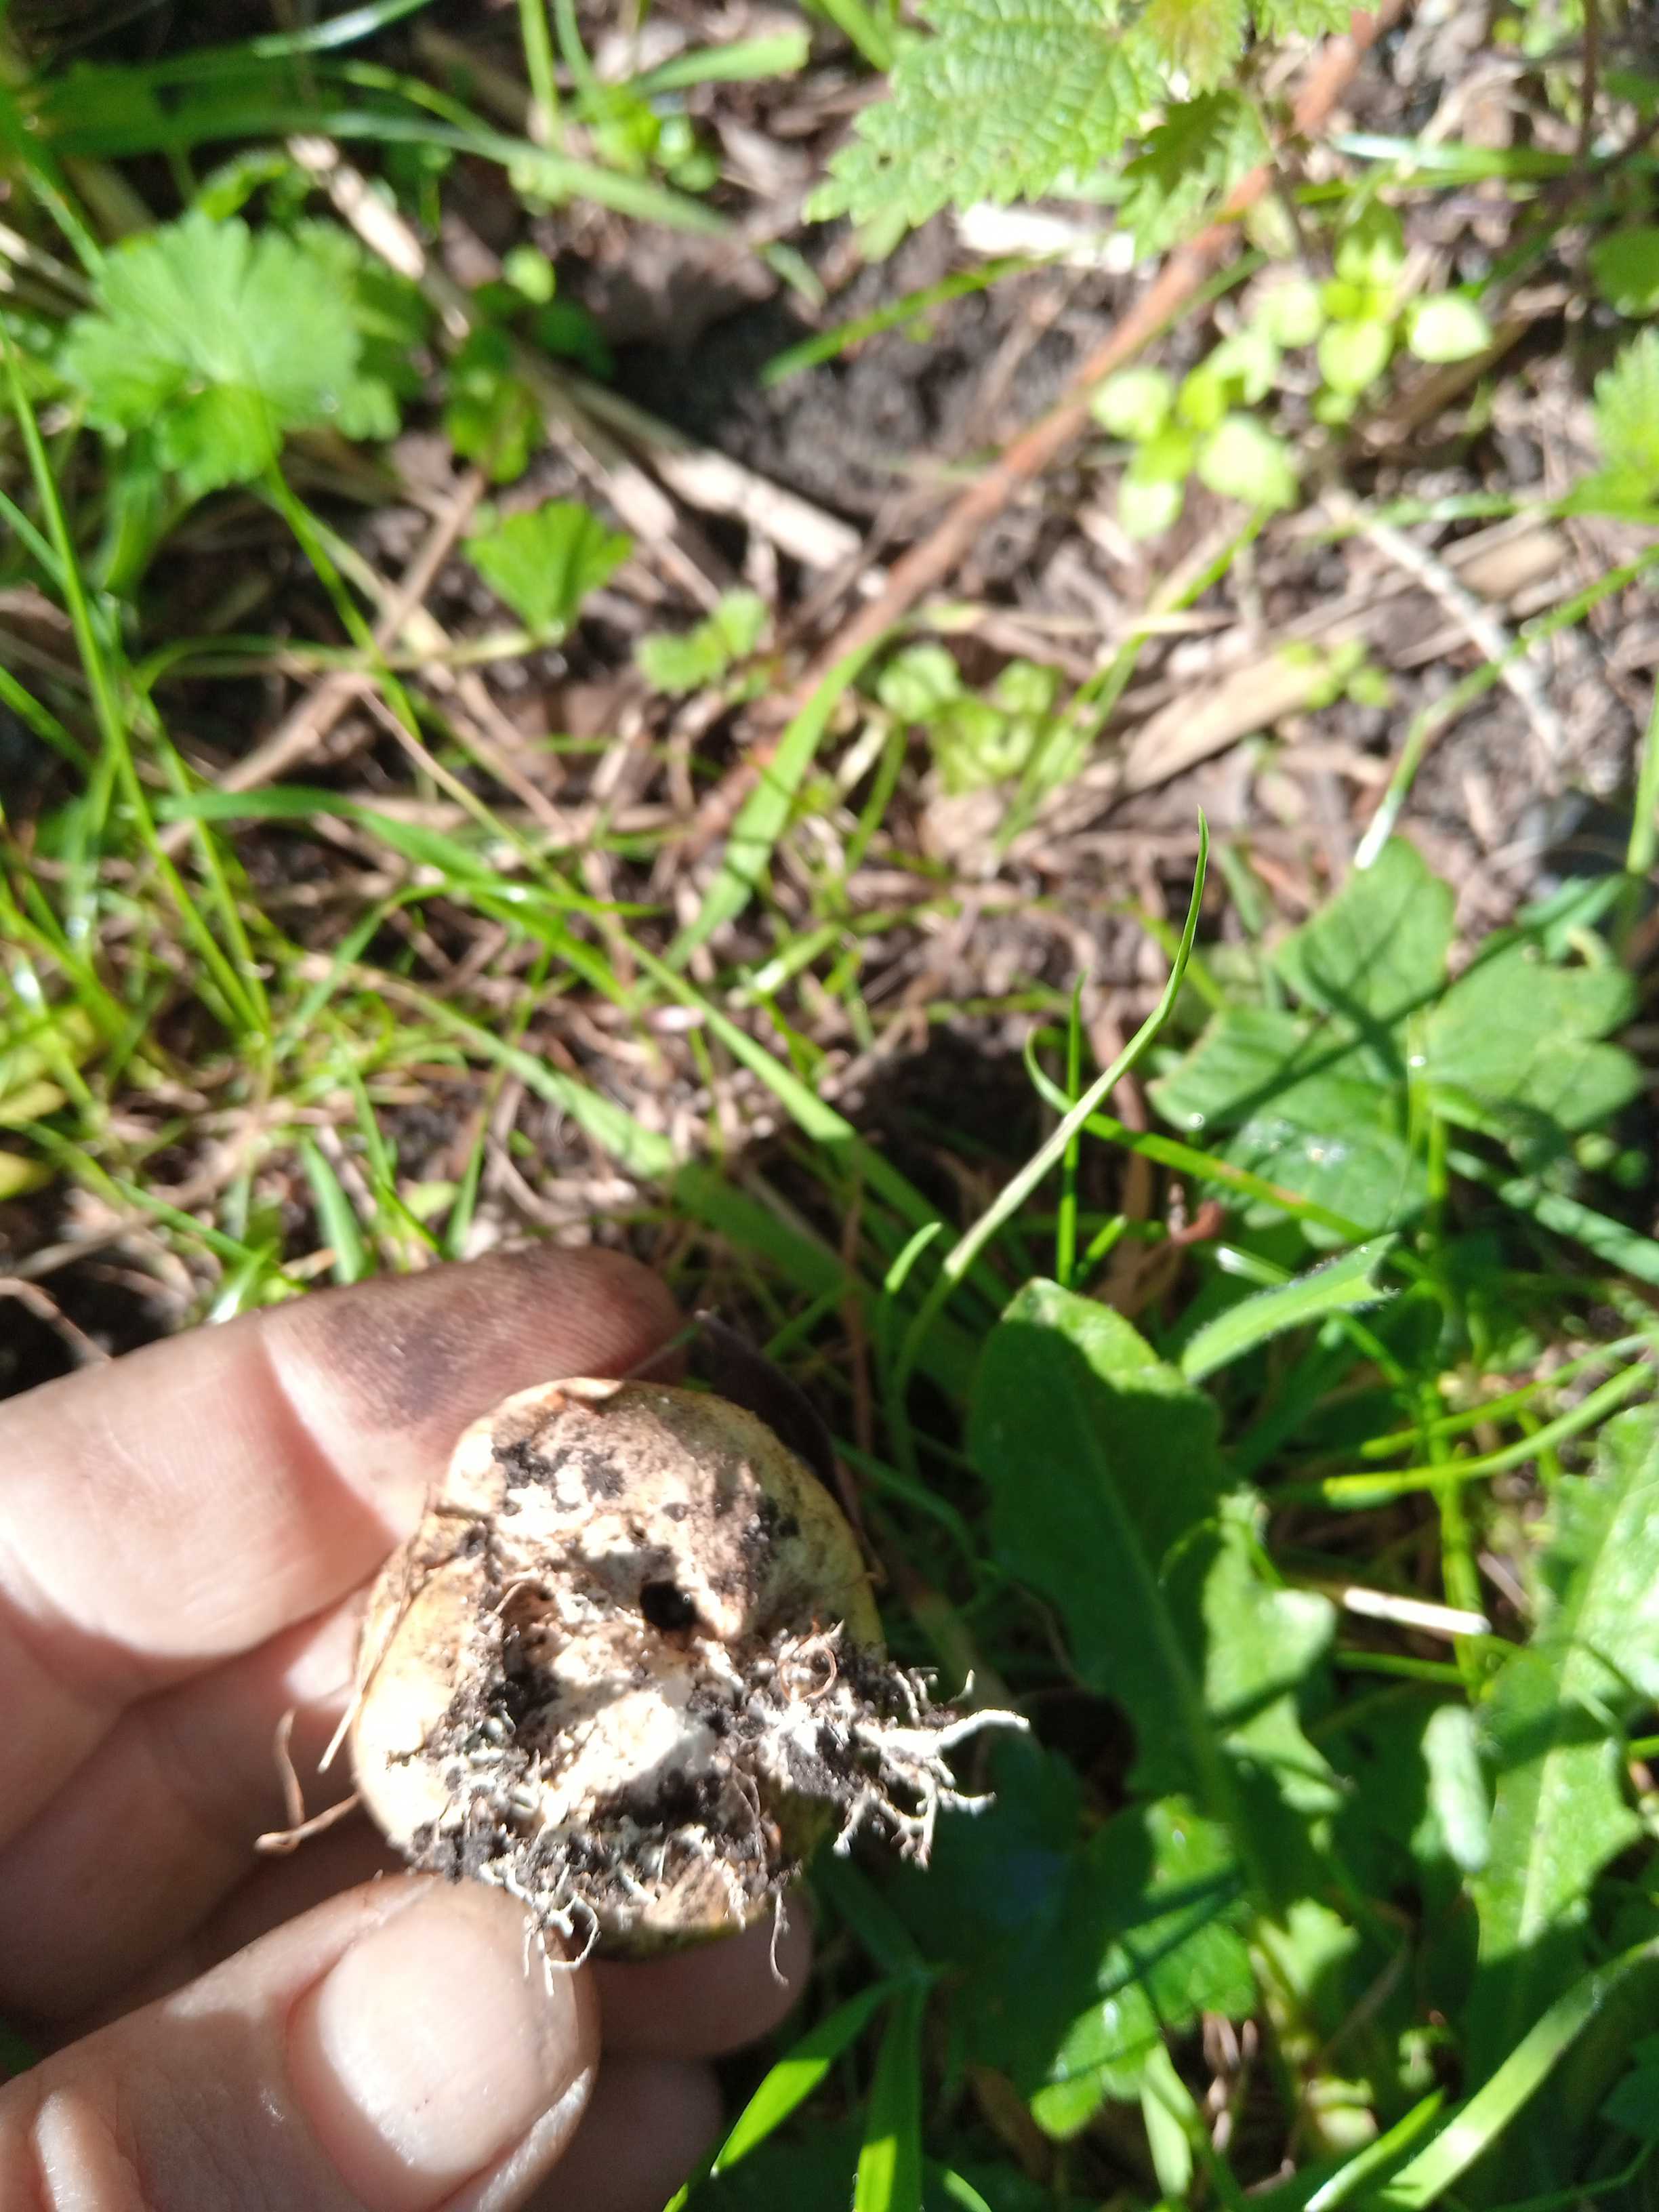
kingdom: Fungi
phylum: Basidiomycota
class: Agaricomycetes
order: Boletales
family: Sclerodermataceae
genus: Scleroderma
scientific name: Scleroderma citrinum
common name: almindelig bruskbold
